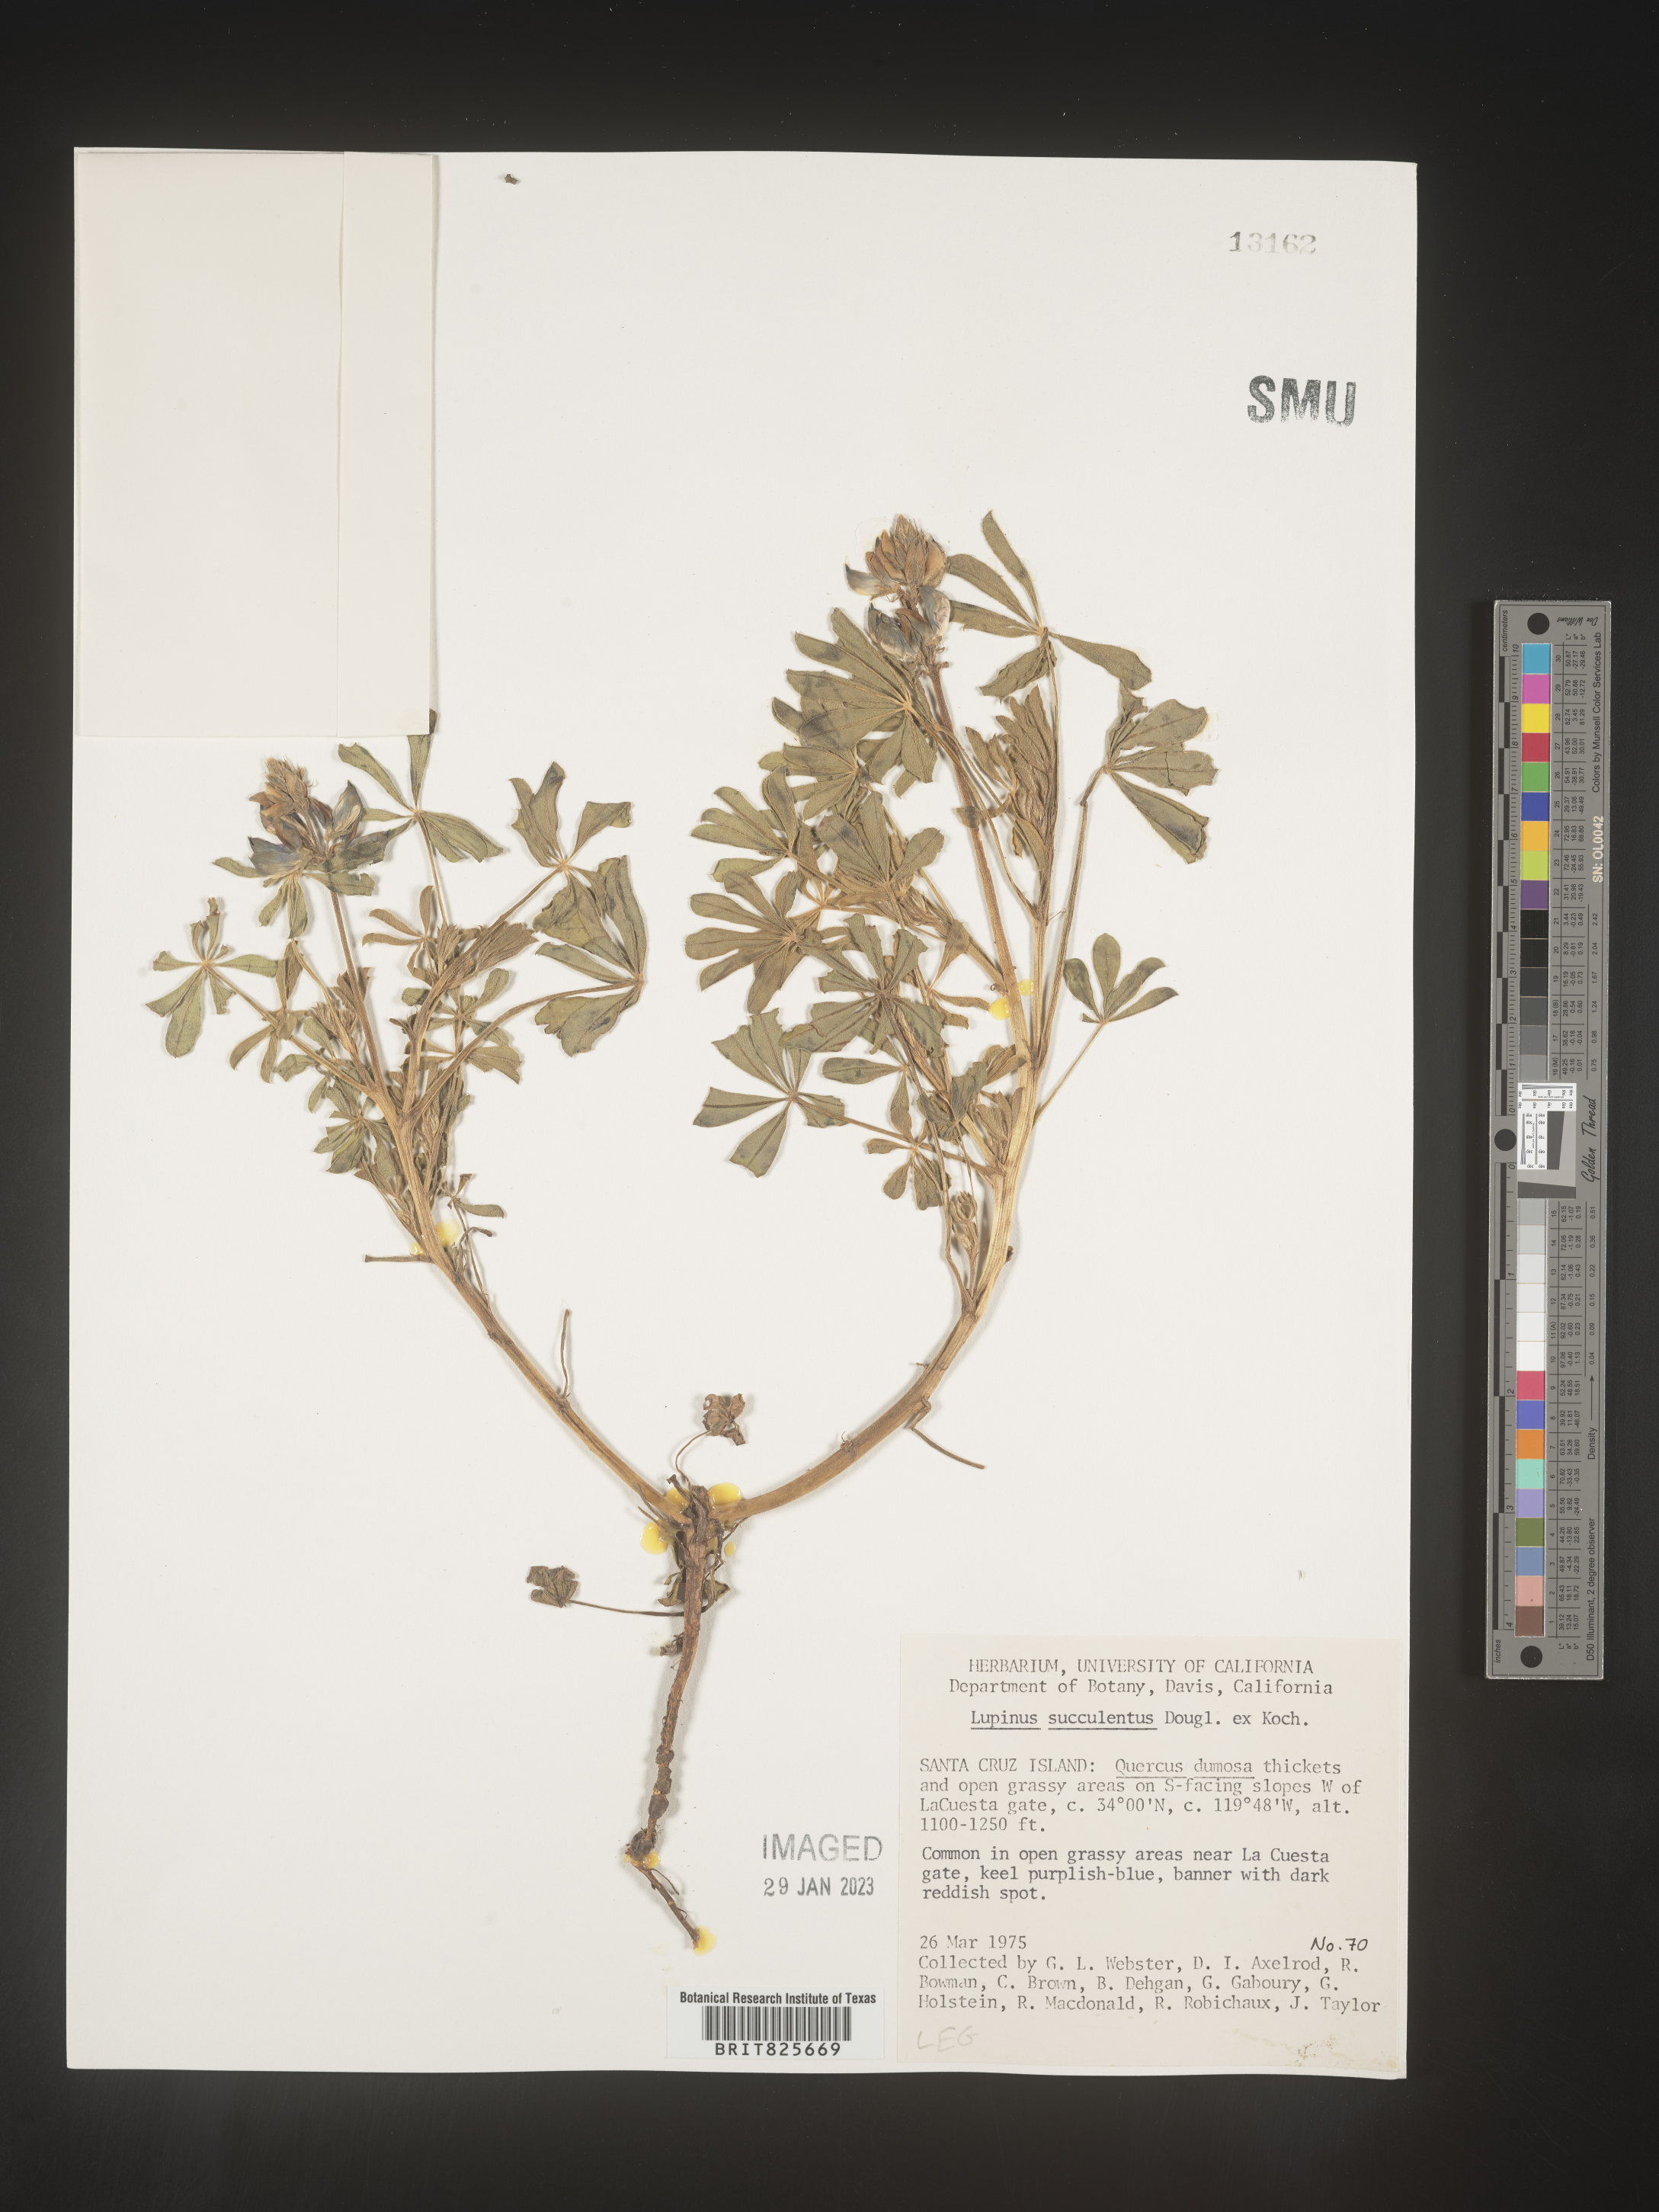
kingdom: Plantae
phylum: Tracheophyta
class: Magnoliopsida
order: Fabales
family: Fabaceae
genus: Lupinus
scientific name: Lupinus
